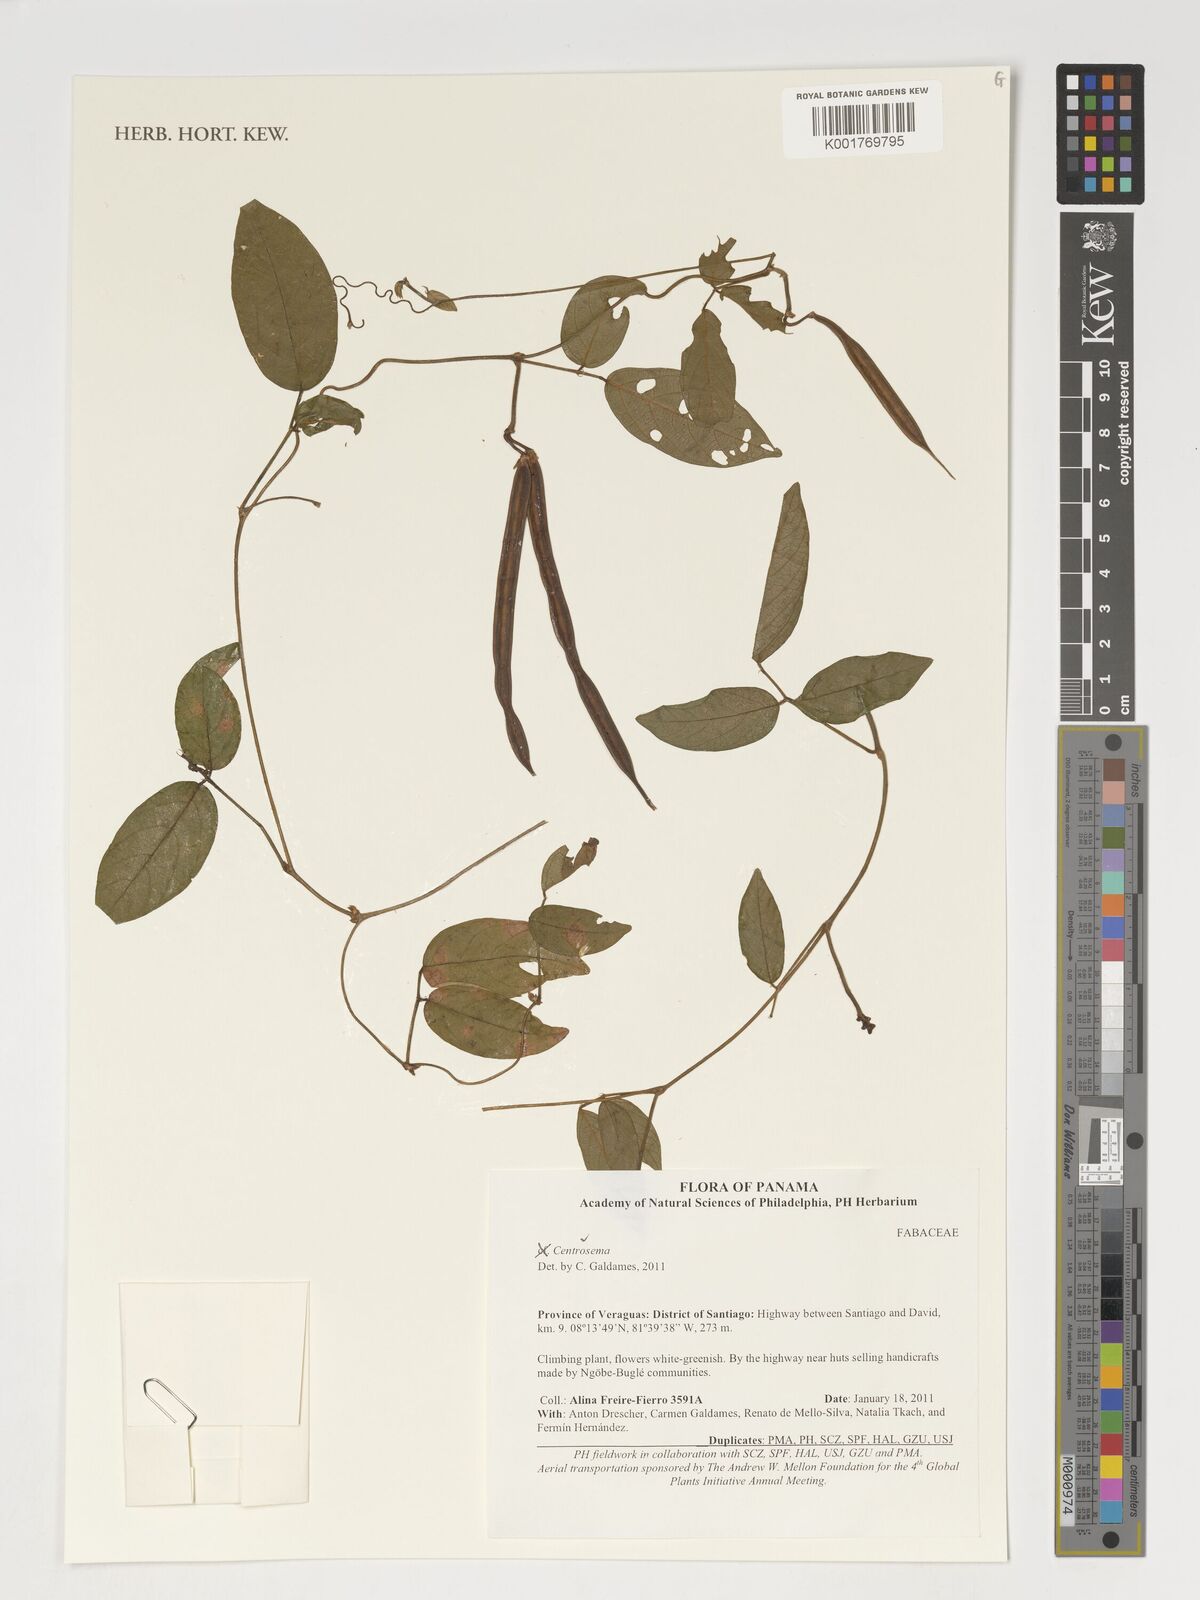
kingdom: Plantae
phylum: Tracheophyta
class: Magnoliopsida
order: Fabales
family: Fabaceae
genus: Centrosema
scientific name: Centrosema
